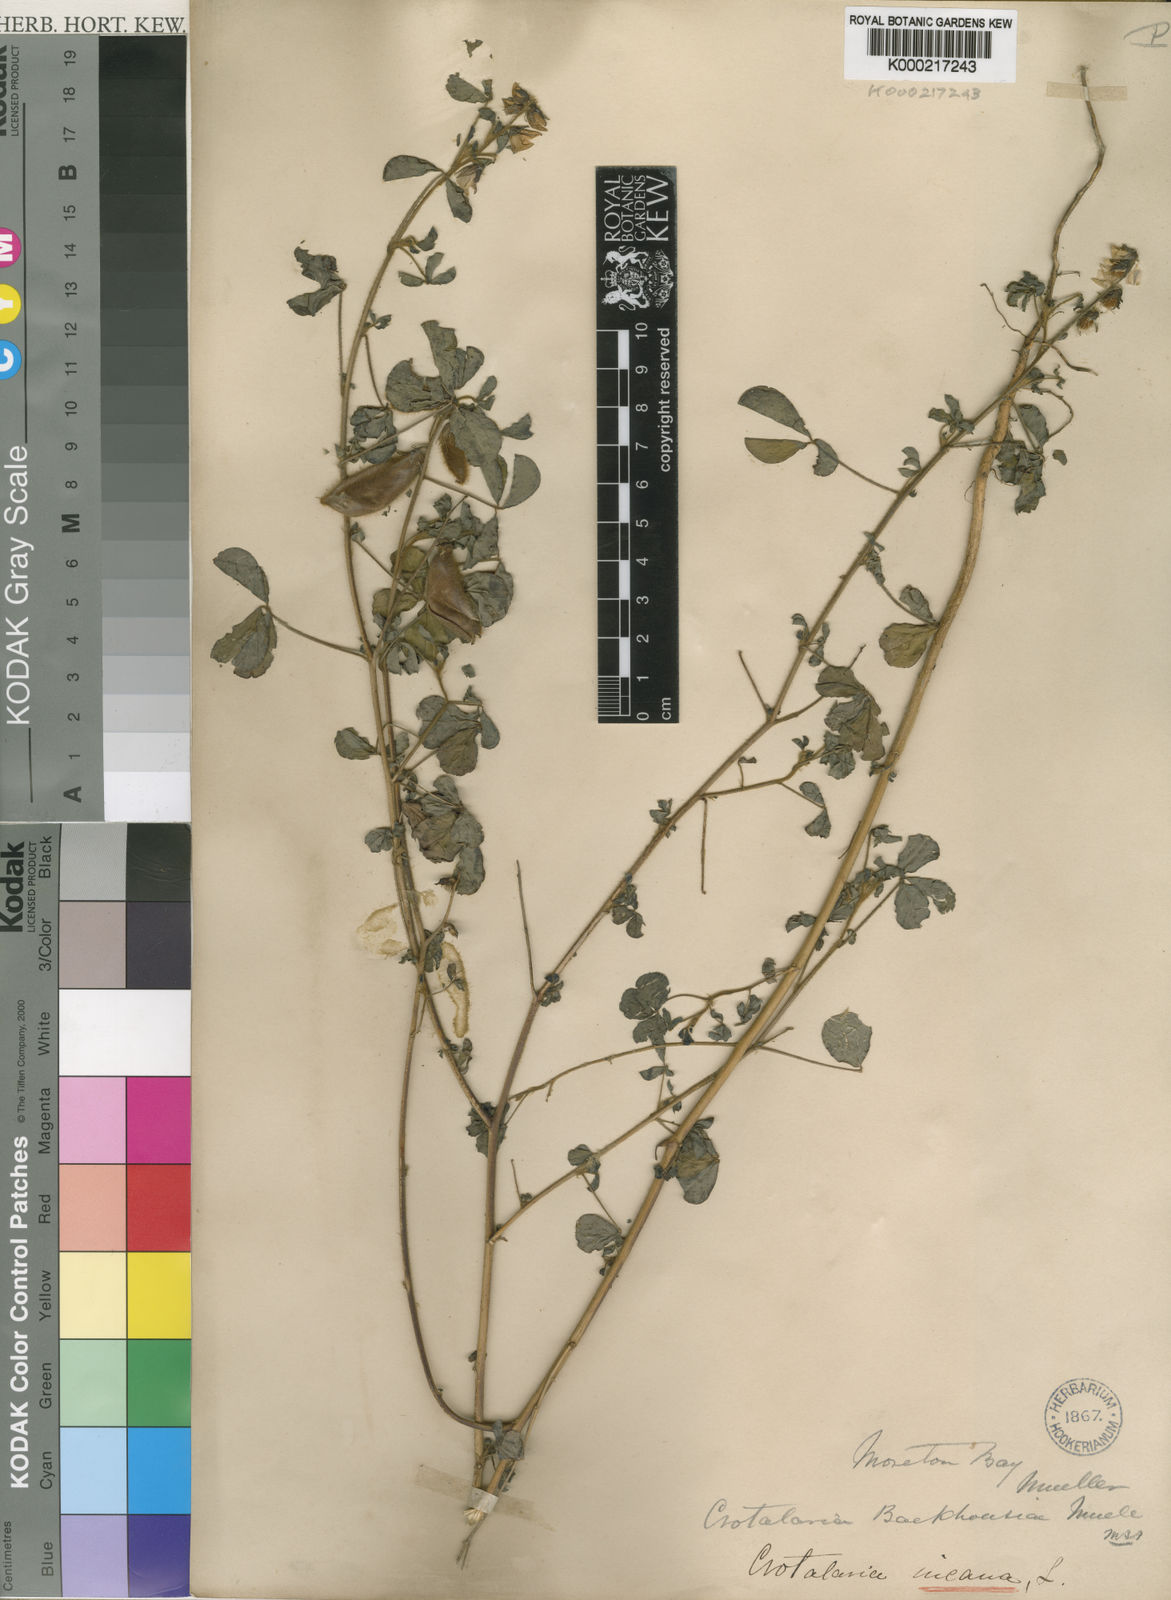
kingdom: Plantae
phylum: Tracheophyta
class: Magnoliopsida
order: Fabales
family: Fabaceae
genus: Crotalaria
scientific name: Crotalaria incana
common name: Shakeshake
